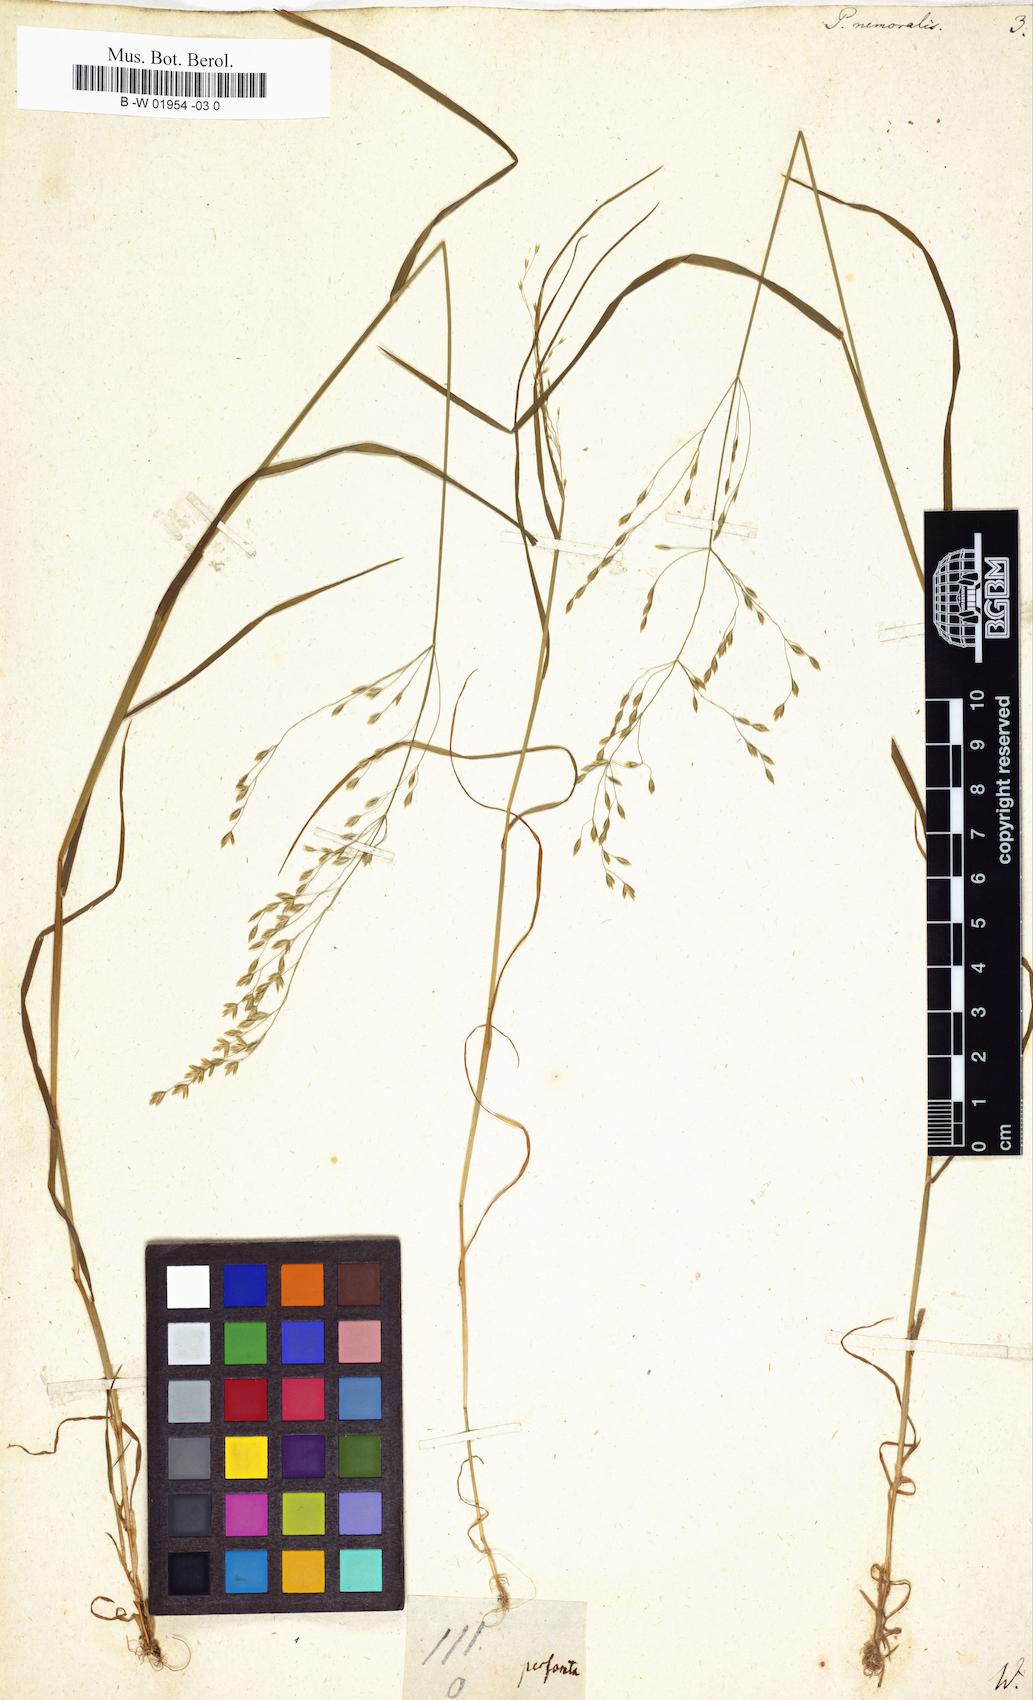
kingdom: Plantae
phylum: Tracheophyta
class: Liliopsida
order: Poales
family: Poaceae
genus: Poa
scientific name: Poa nemoralis
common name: Wood bluegrass
